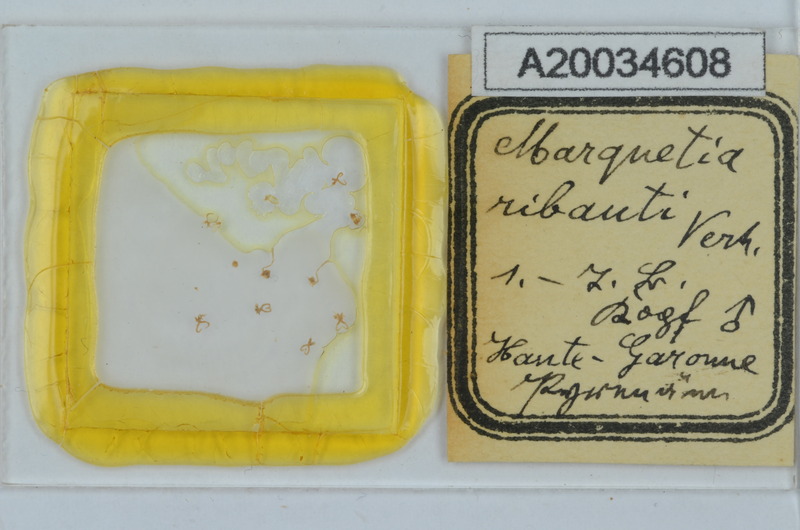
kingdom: Animalia
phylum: Arthropoda
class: Diplopoda
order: Chordeumatida
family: Opisthocheiridae
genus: Marquetia
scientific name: Marquetia
